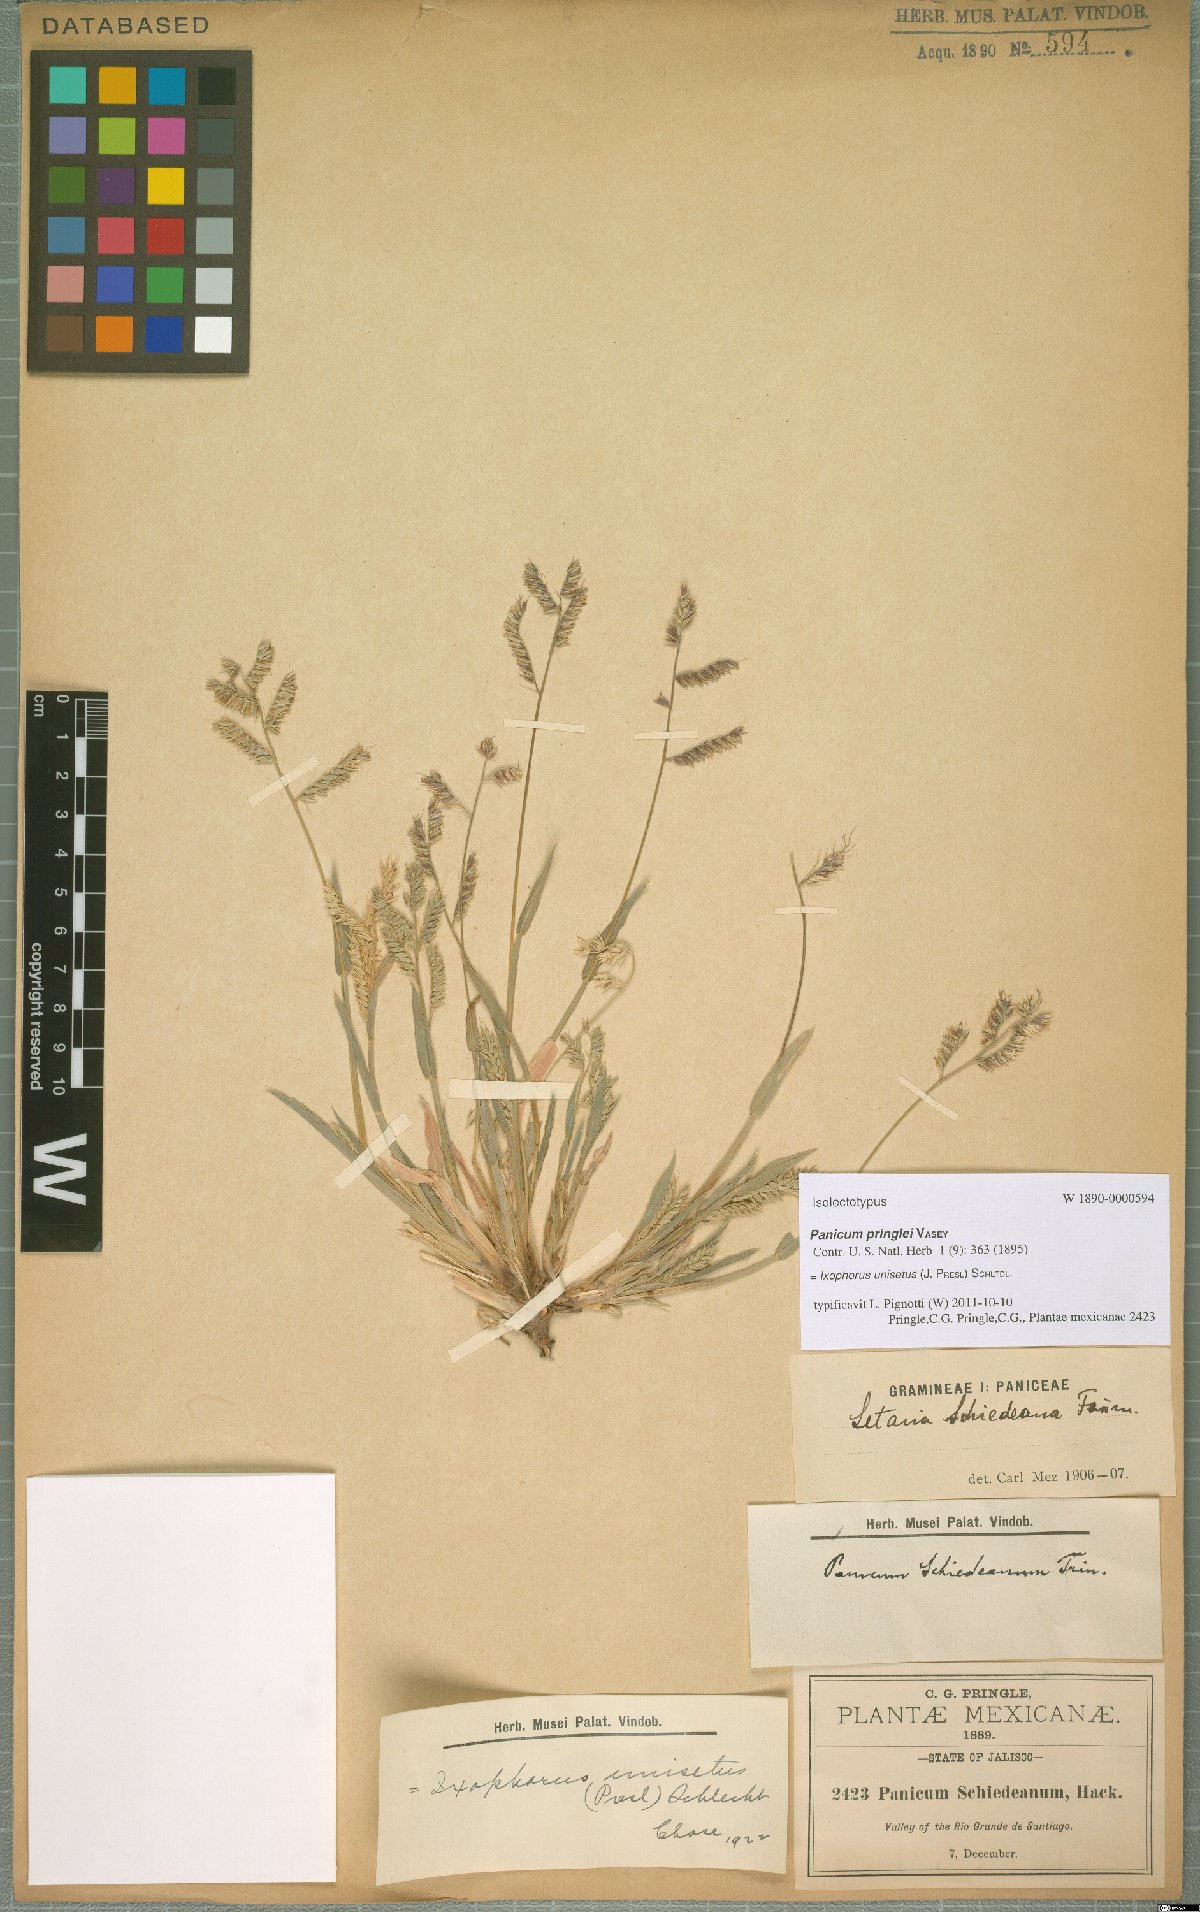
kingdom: Plantae
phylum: Tracheophyta
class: Liliopsida
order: Poales
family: Poaceae
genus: Ixophorus
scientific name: Ixophorus unisetus
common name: Crane grass
